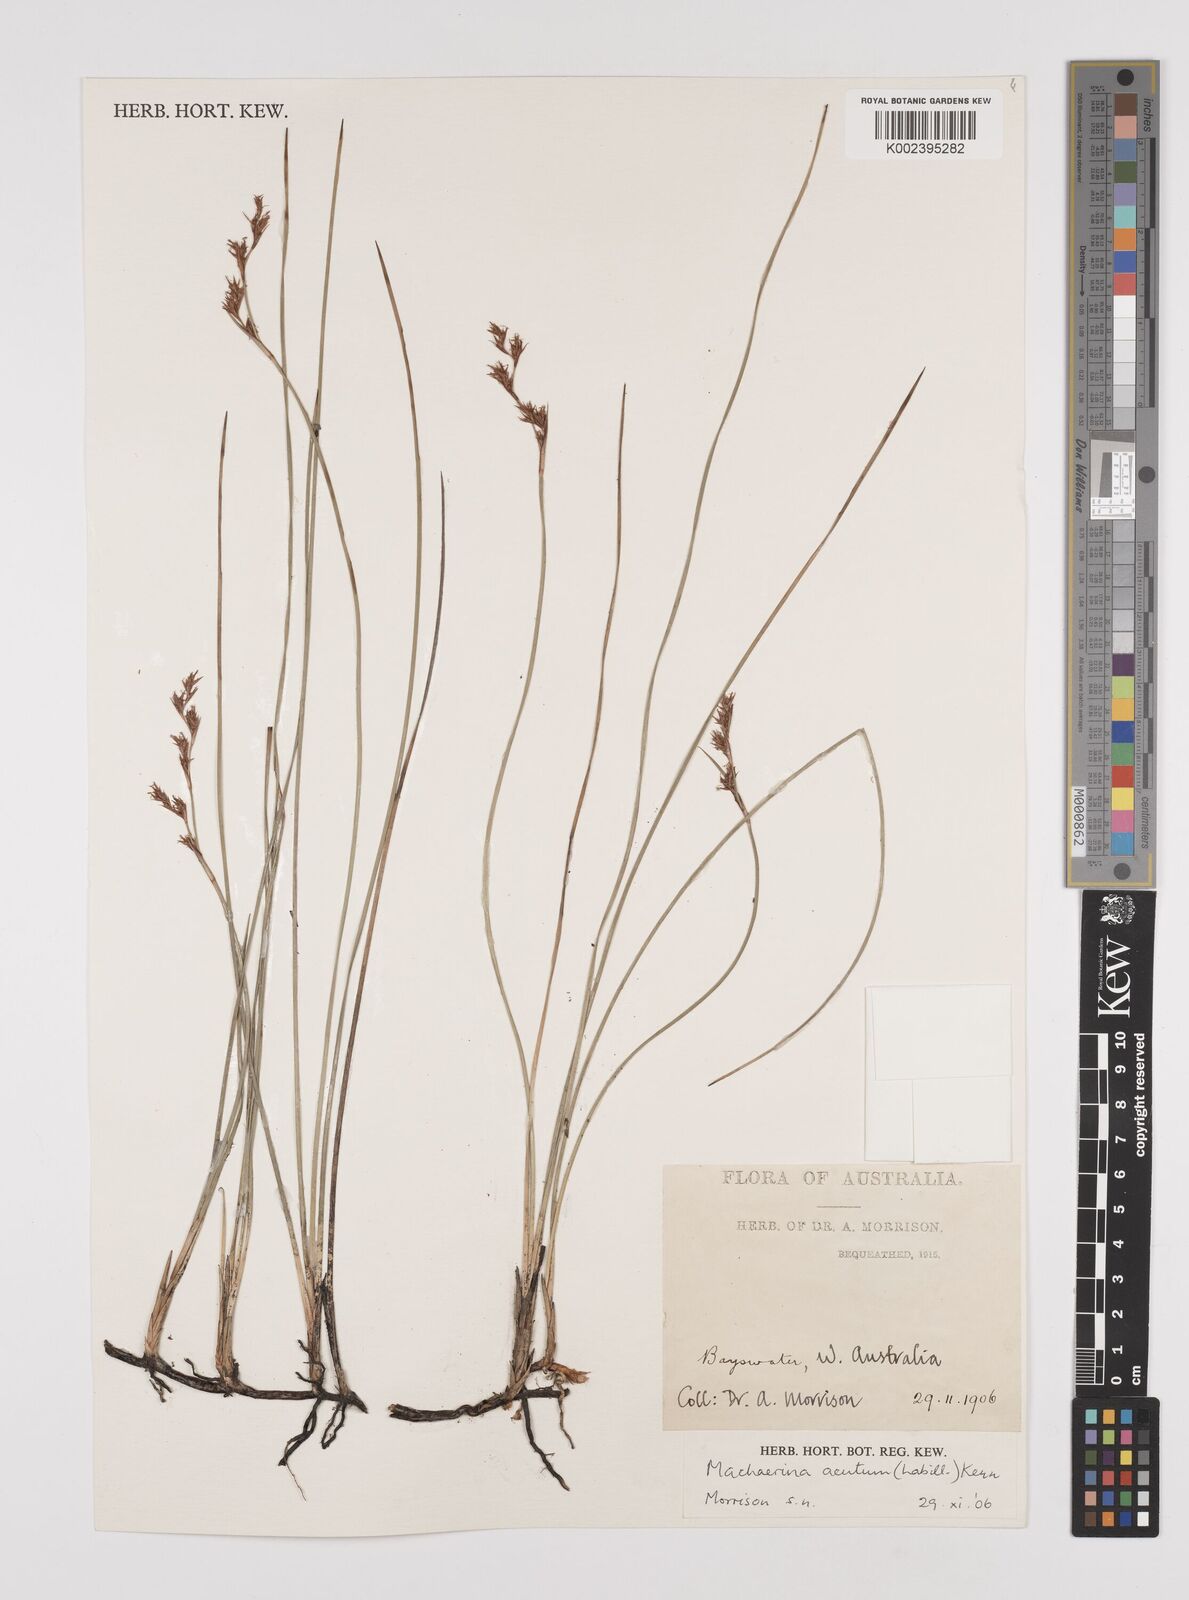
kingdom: Plantae
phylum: Tracheophyta
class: Liliopsida
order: Poales
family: Cyperaceae
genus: Machaerina
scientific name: Machaerina acuta
